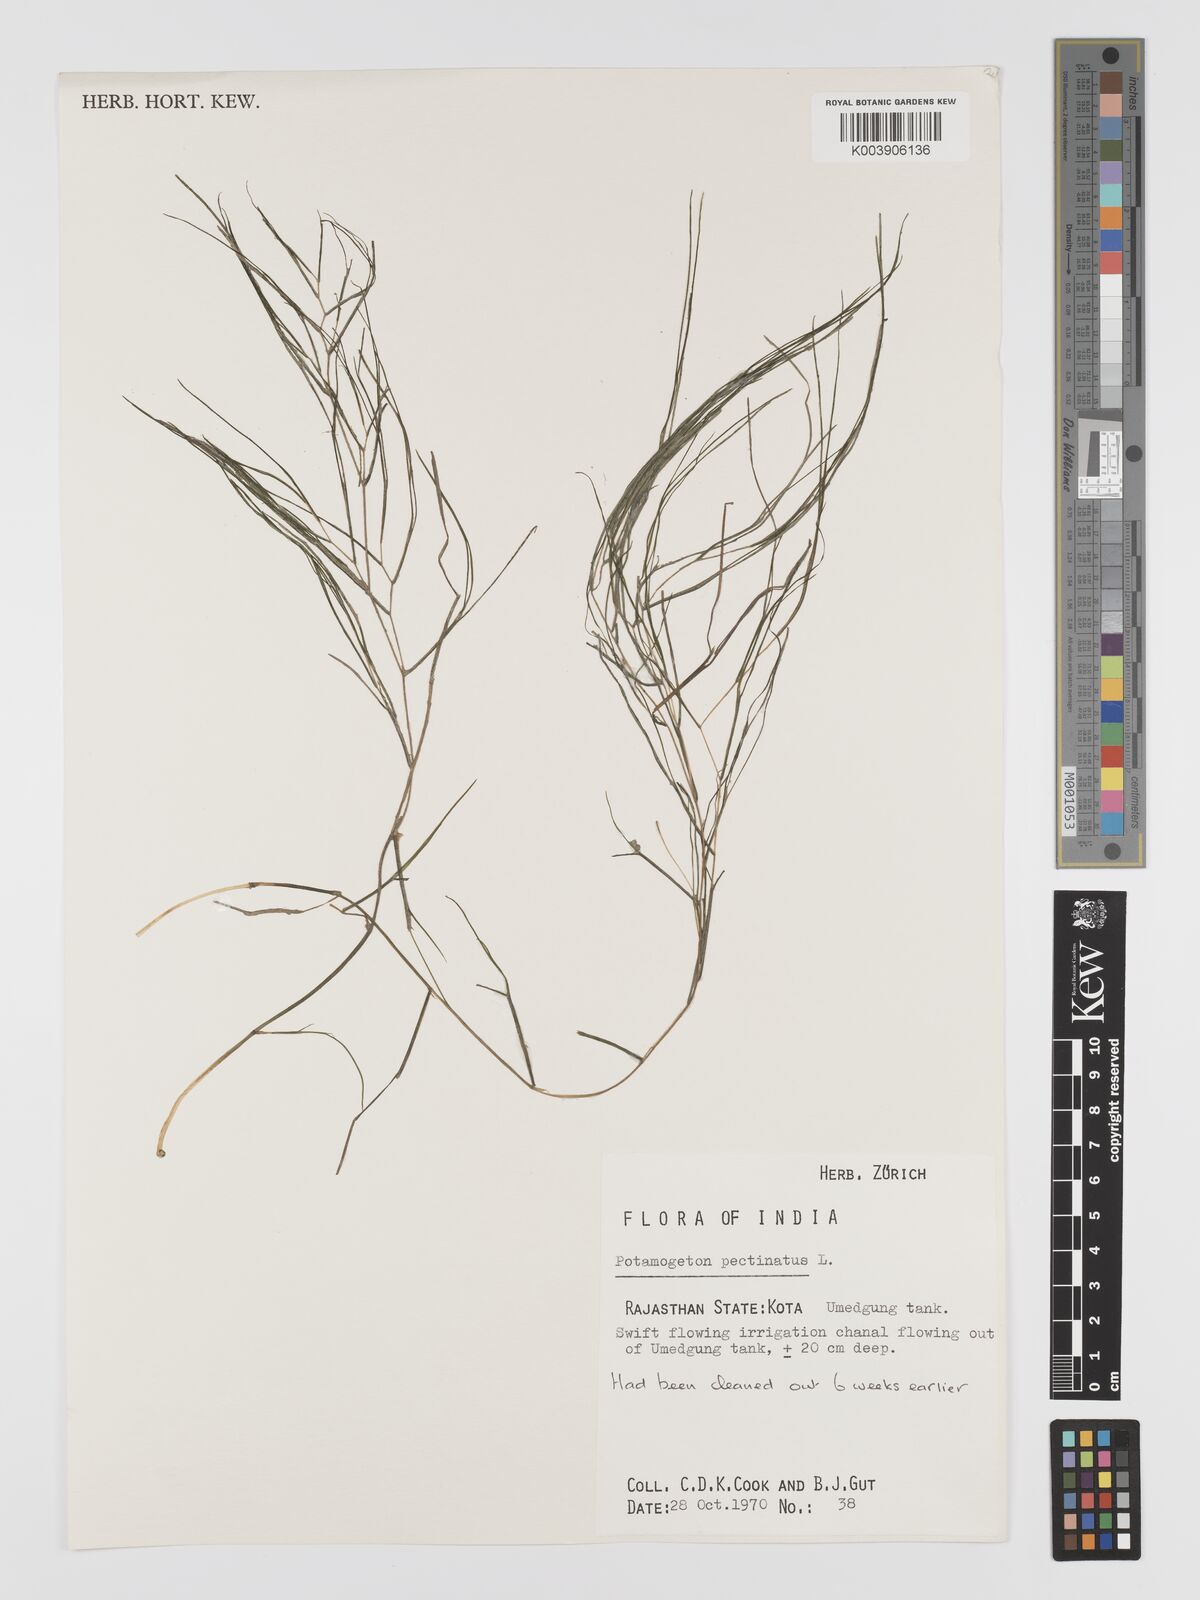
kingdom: Plantae
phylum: Tracheophyta
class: Liliopsida
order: Alismatales
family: Potamogetonaceae
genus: Stuckenia
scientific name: Stuckenia pectinata
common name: Sago pondweed
